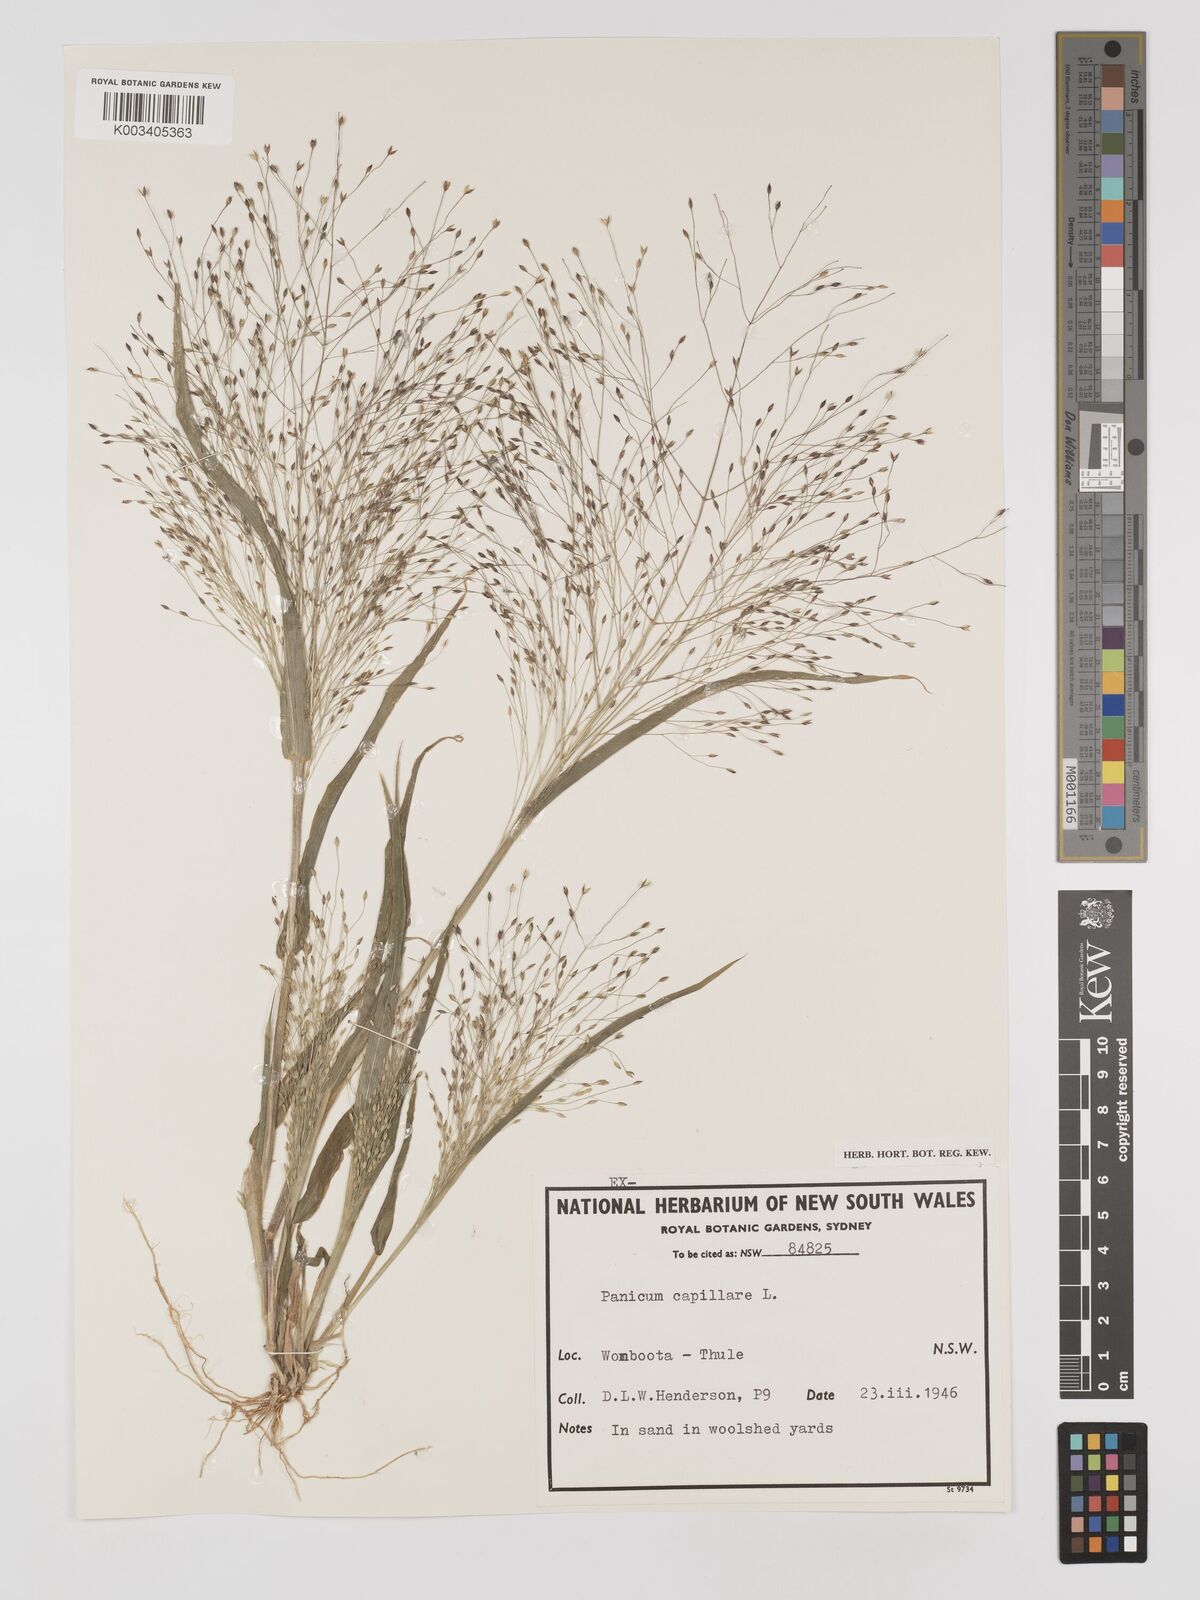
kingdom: Plantae
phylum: Tracheophyta
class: Liliopsida
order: Poales
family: Poaceae
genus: Panicum
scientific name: Panicum capillare
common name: Witch-grass
